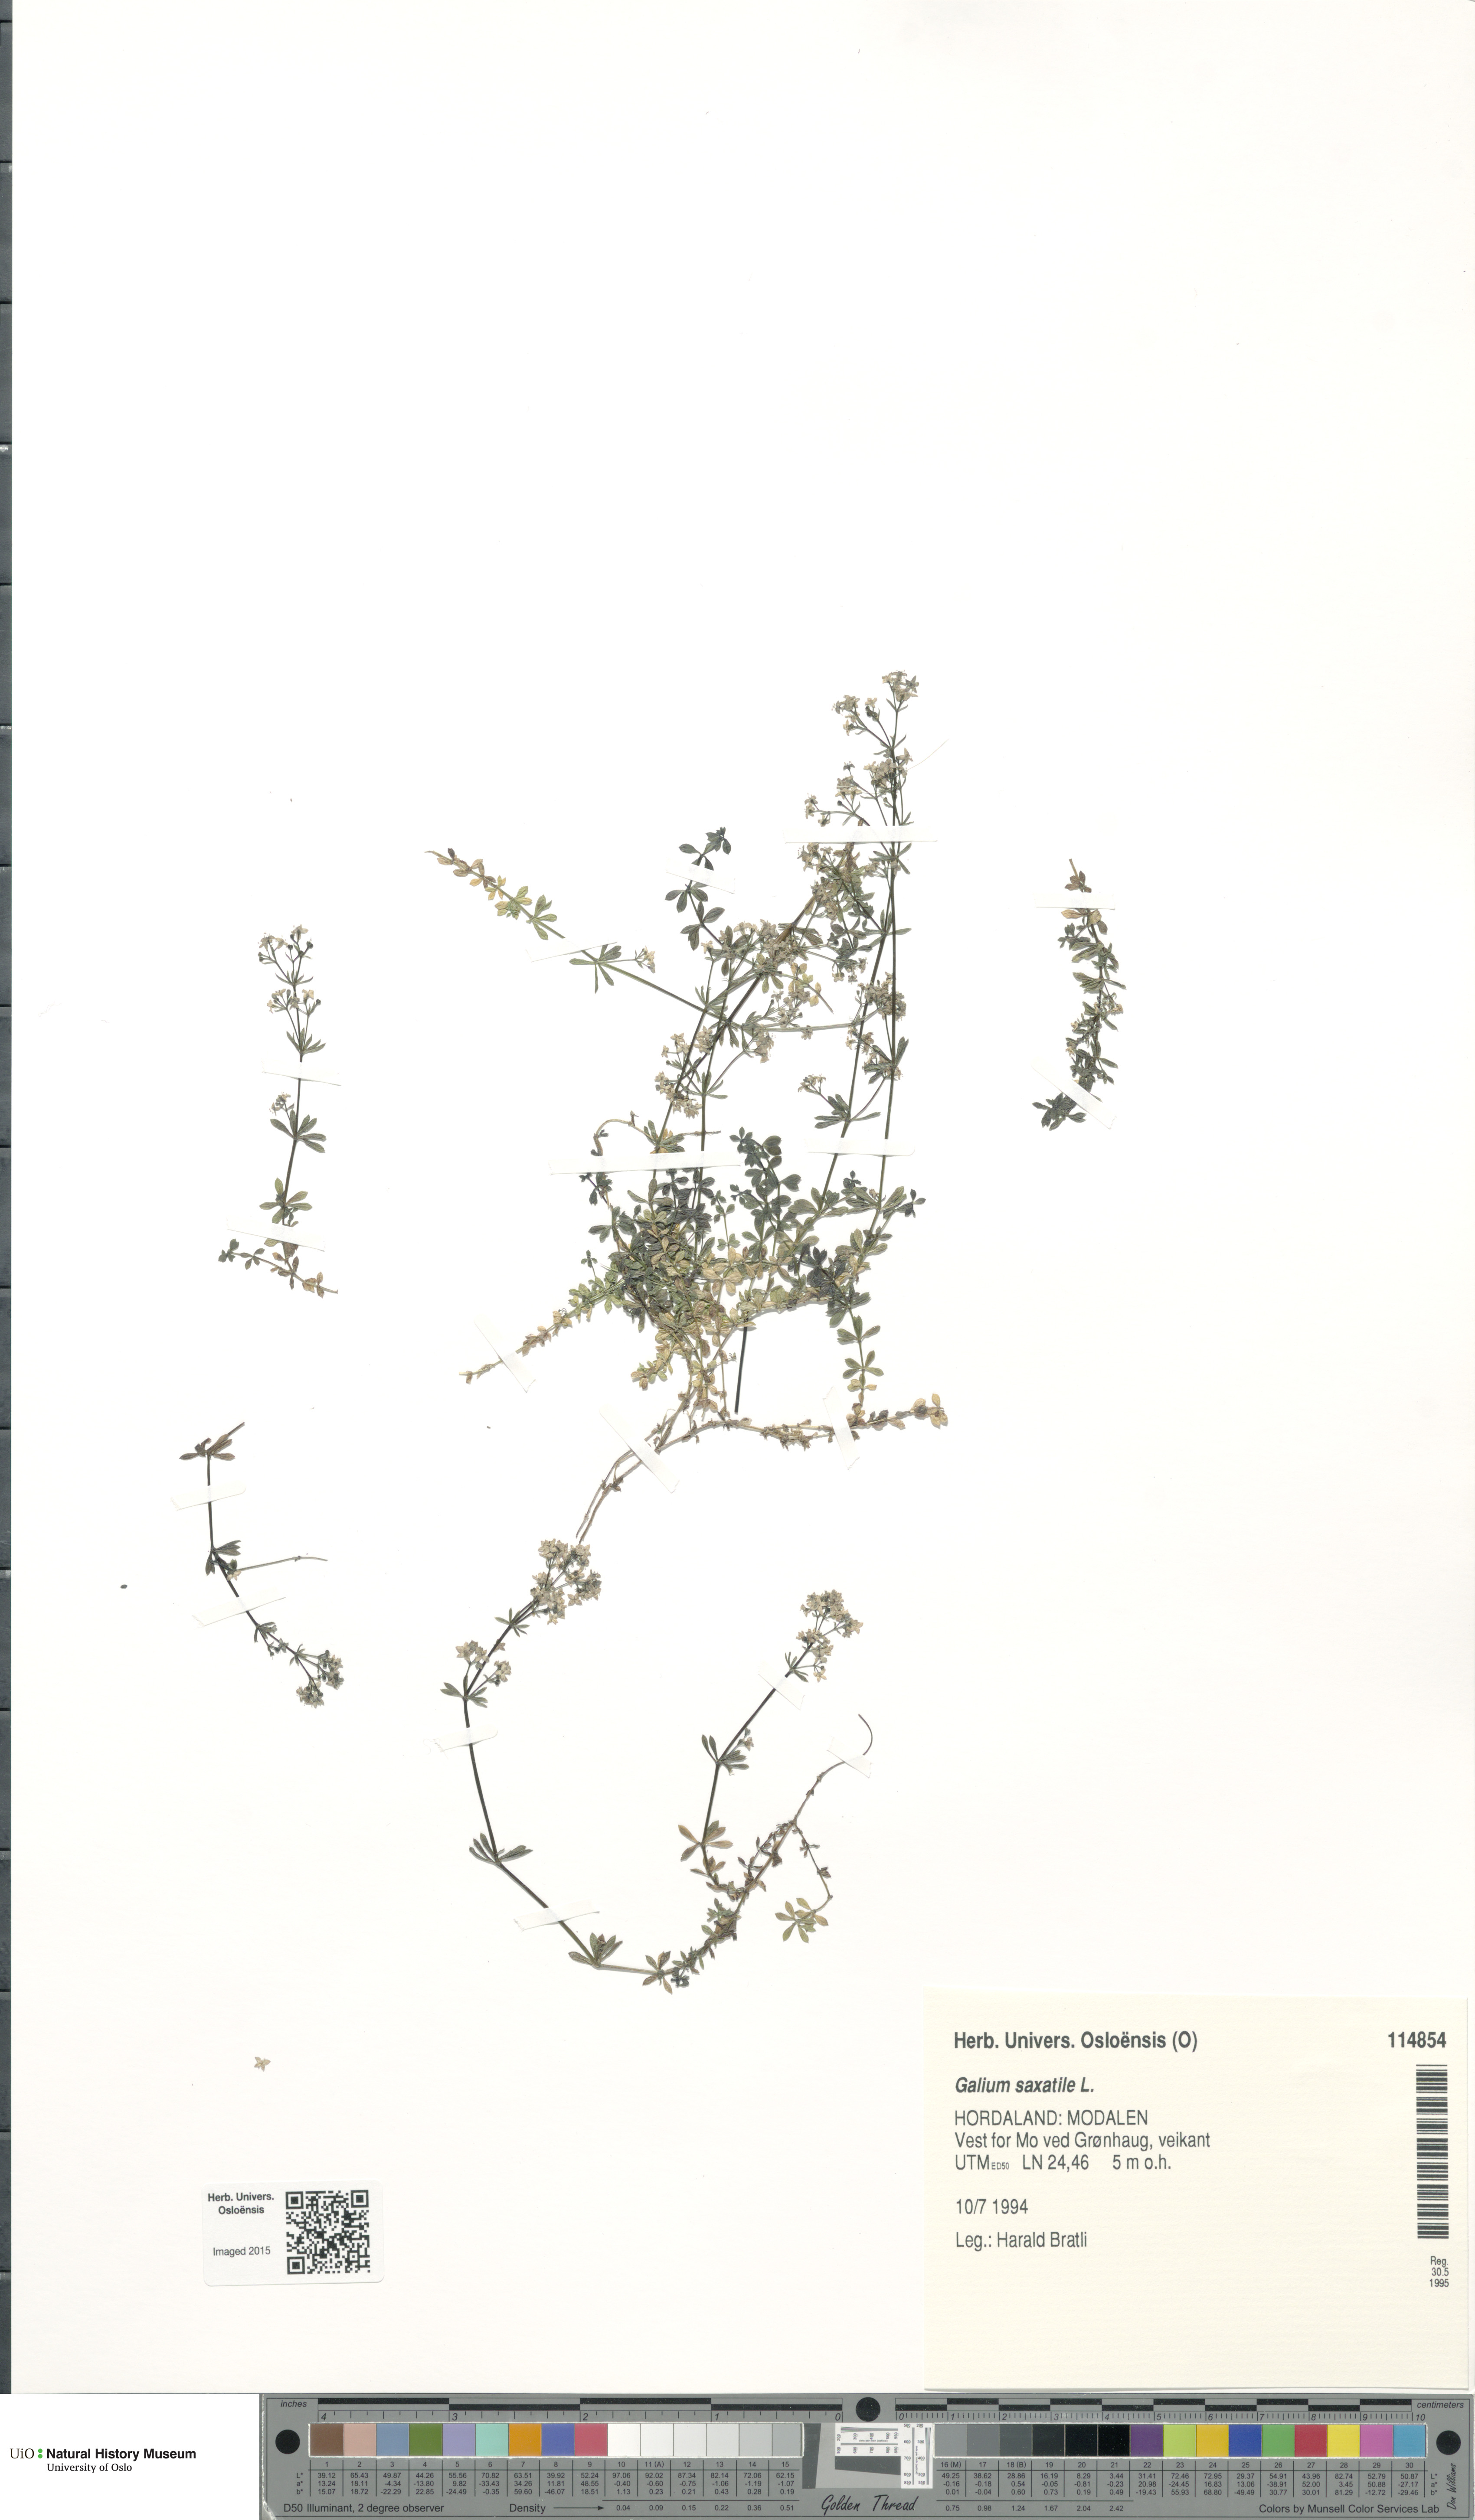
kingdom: Plantae
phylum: Tracheophyta
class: Magnoliopsida
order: Gentianales
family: Rubiaceae
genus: Galium
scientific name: Galium saxatile
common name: Heath bedstraw
